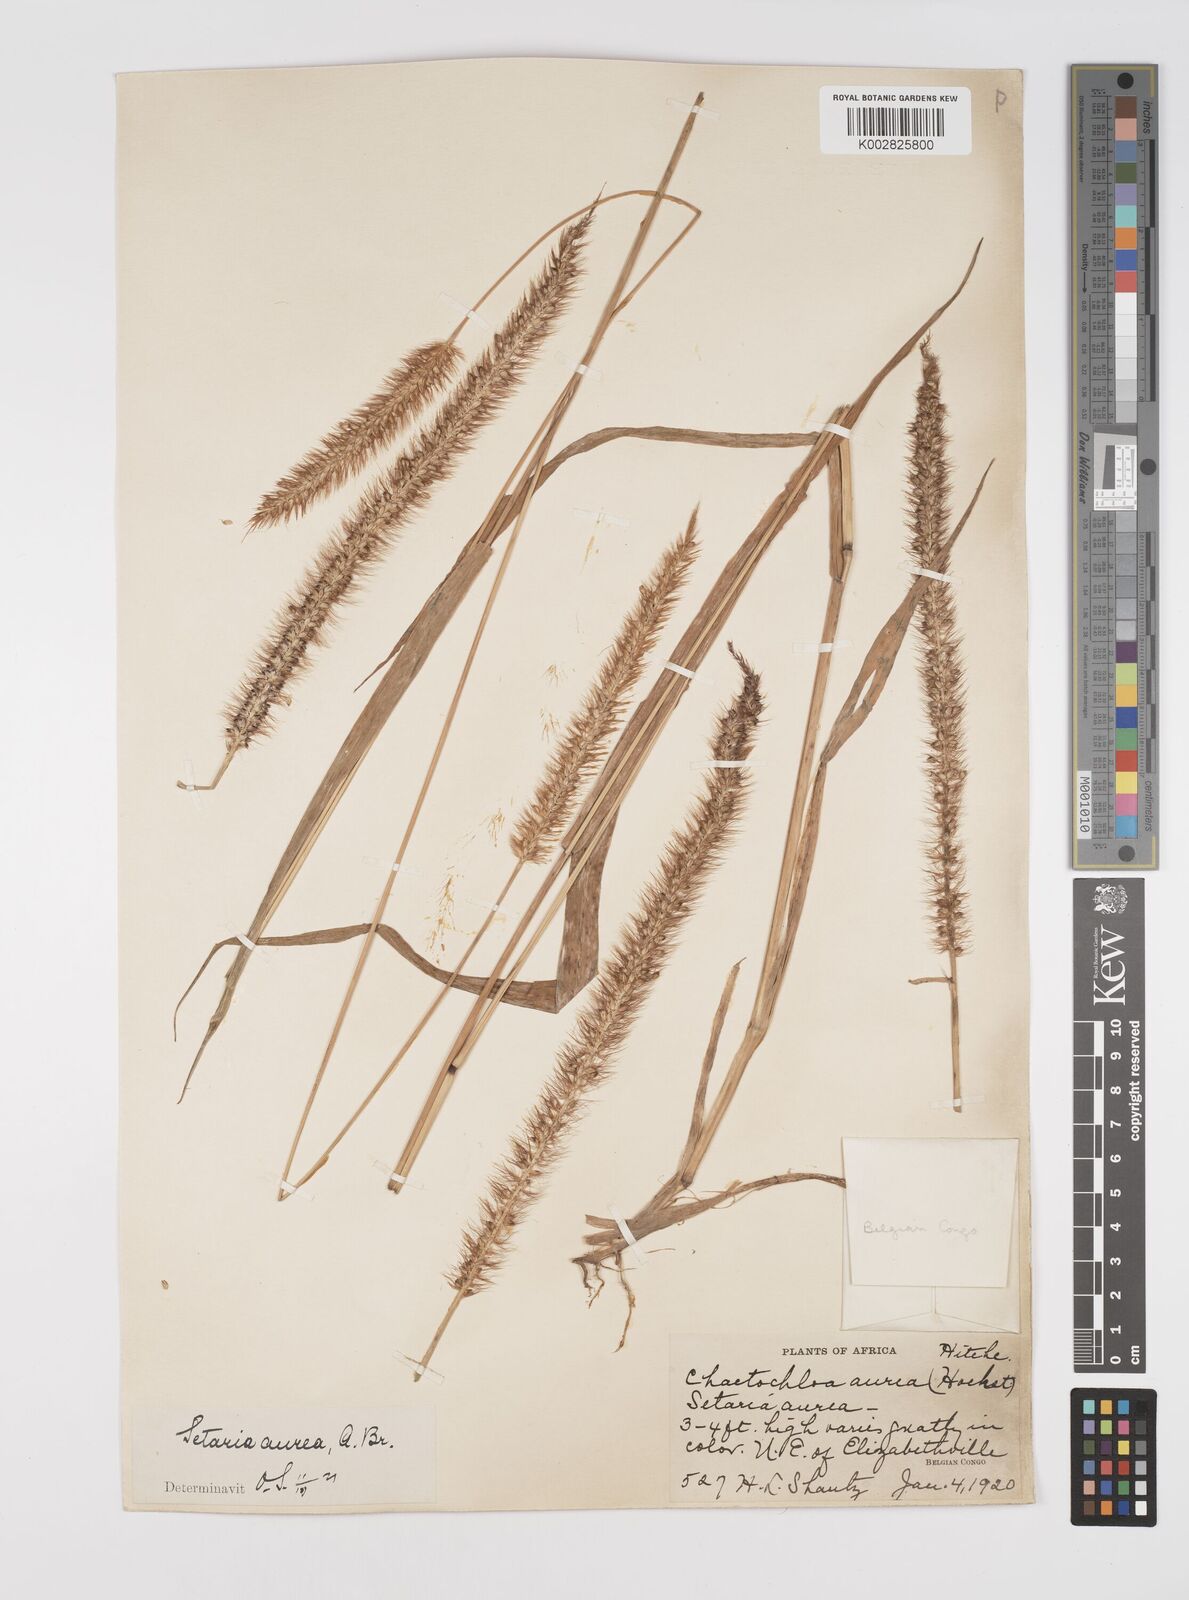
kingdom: Plantae
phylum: Tracheophyta
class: Liliopsida
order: Poales
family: Poaceae
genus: Setaria
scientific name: Setaria sphacelata
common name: African bristlegrass
